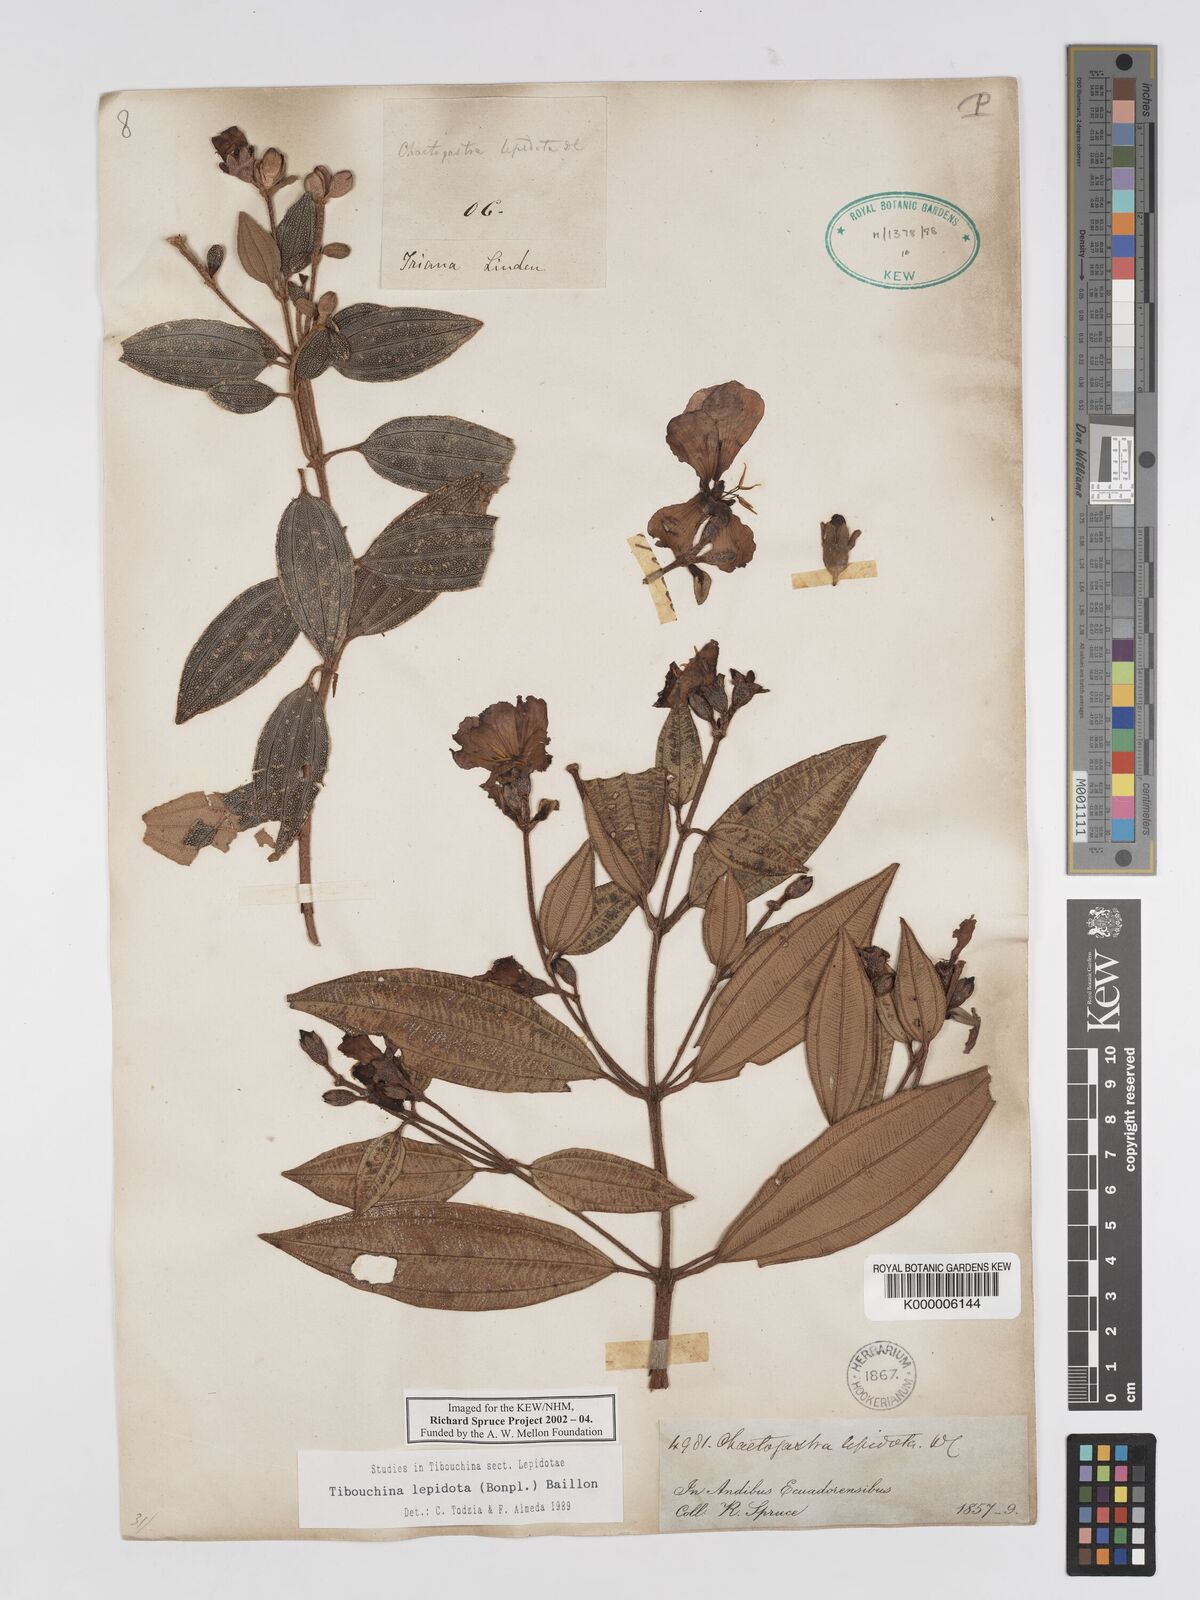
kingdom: Plantae
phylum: Tracheophyta
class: Magnoliopsida
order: Myrtales
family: Melastomataceae
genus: Andesanthus
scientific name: Andesanthus lepidotus
